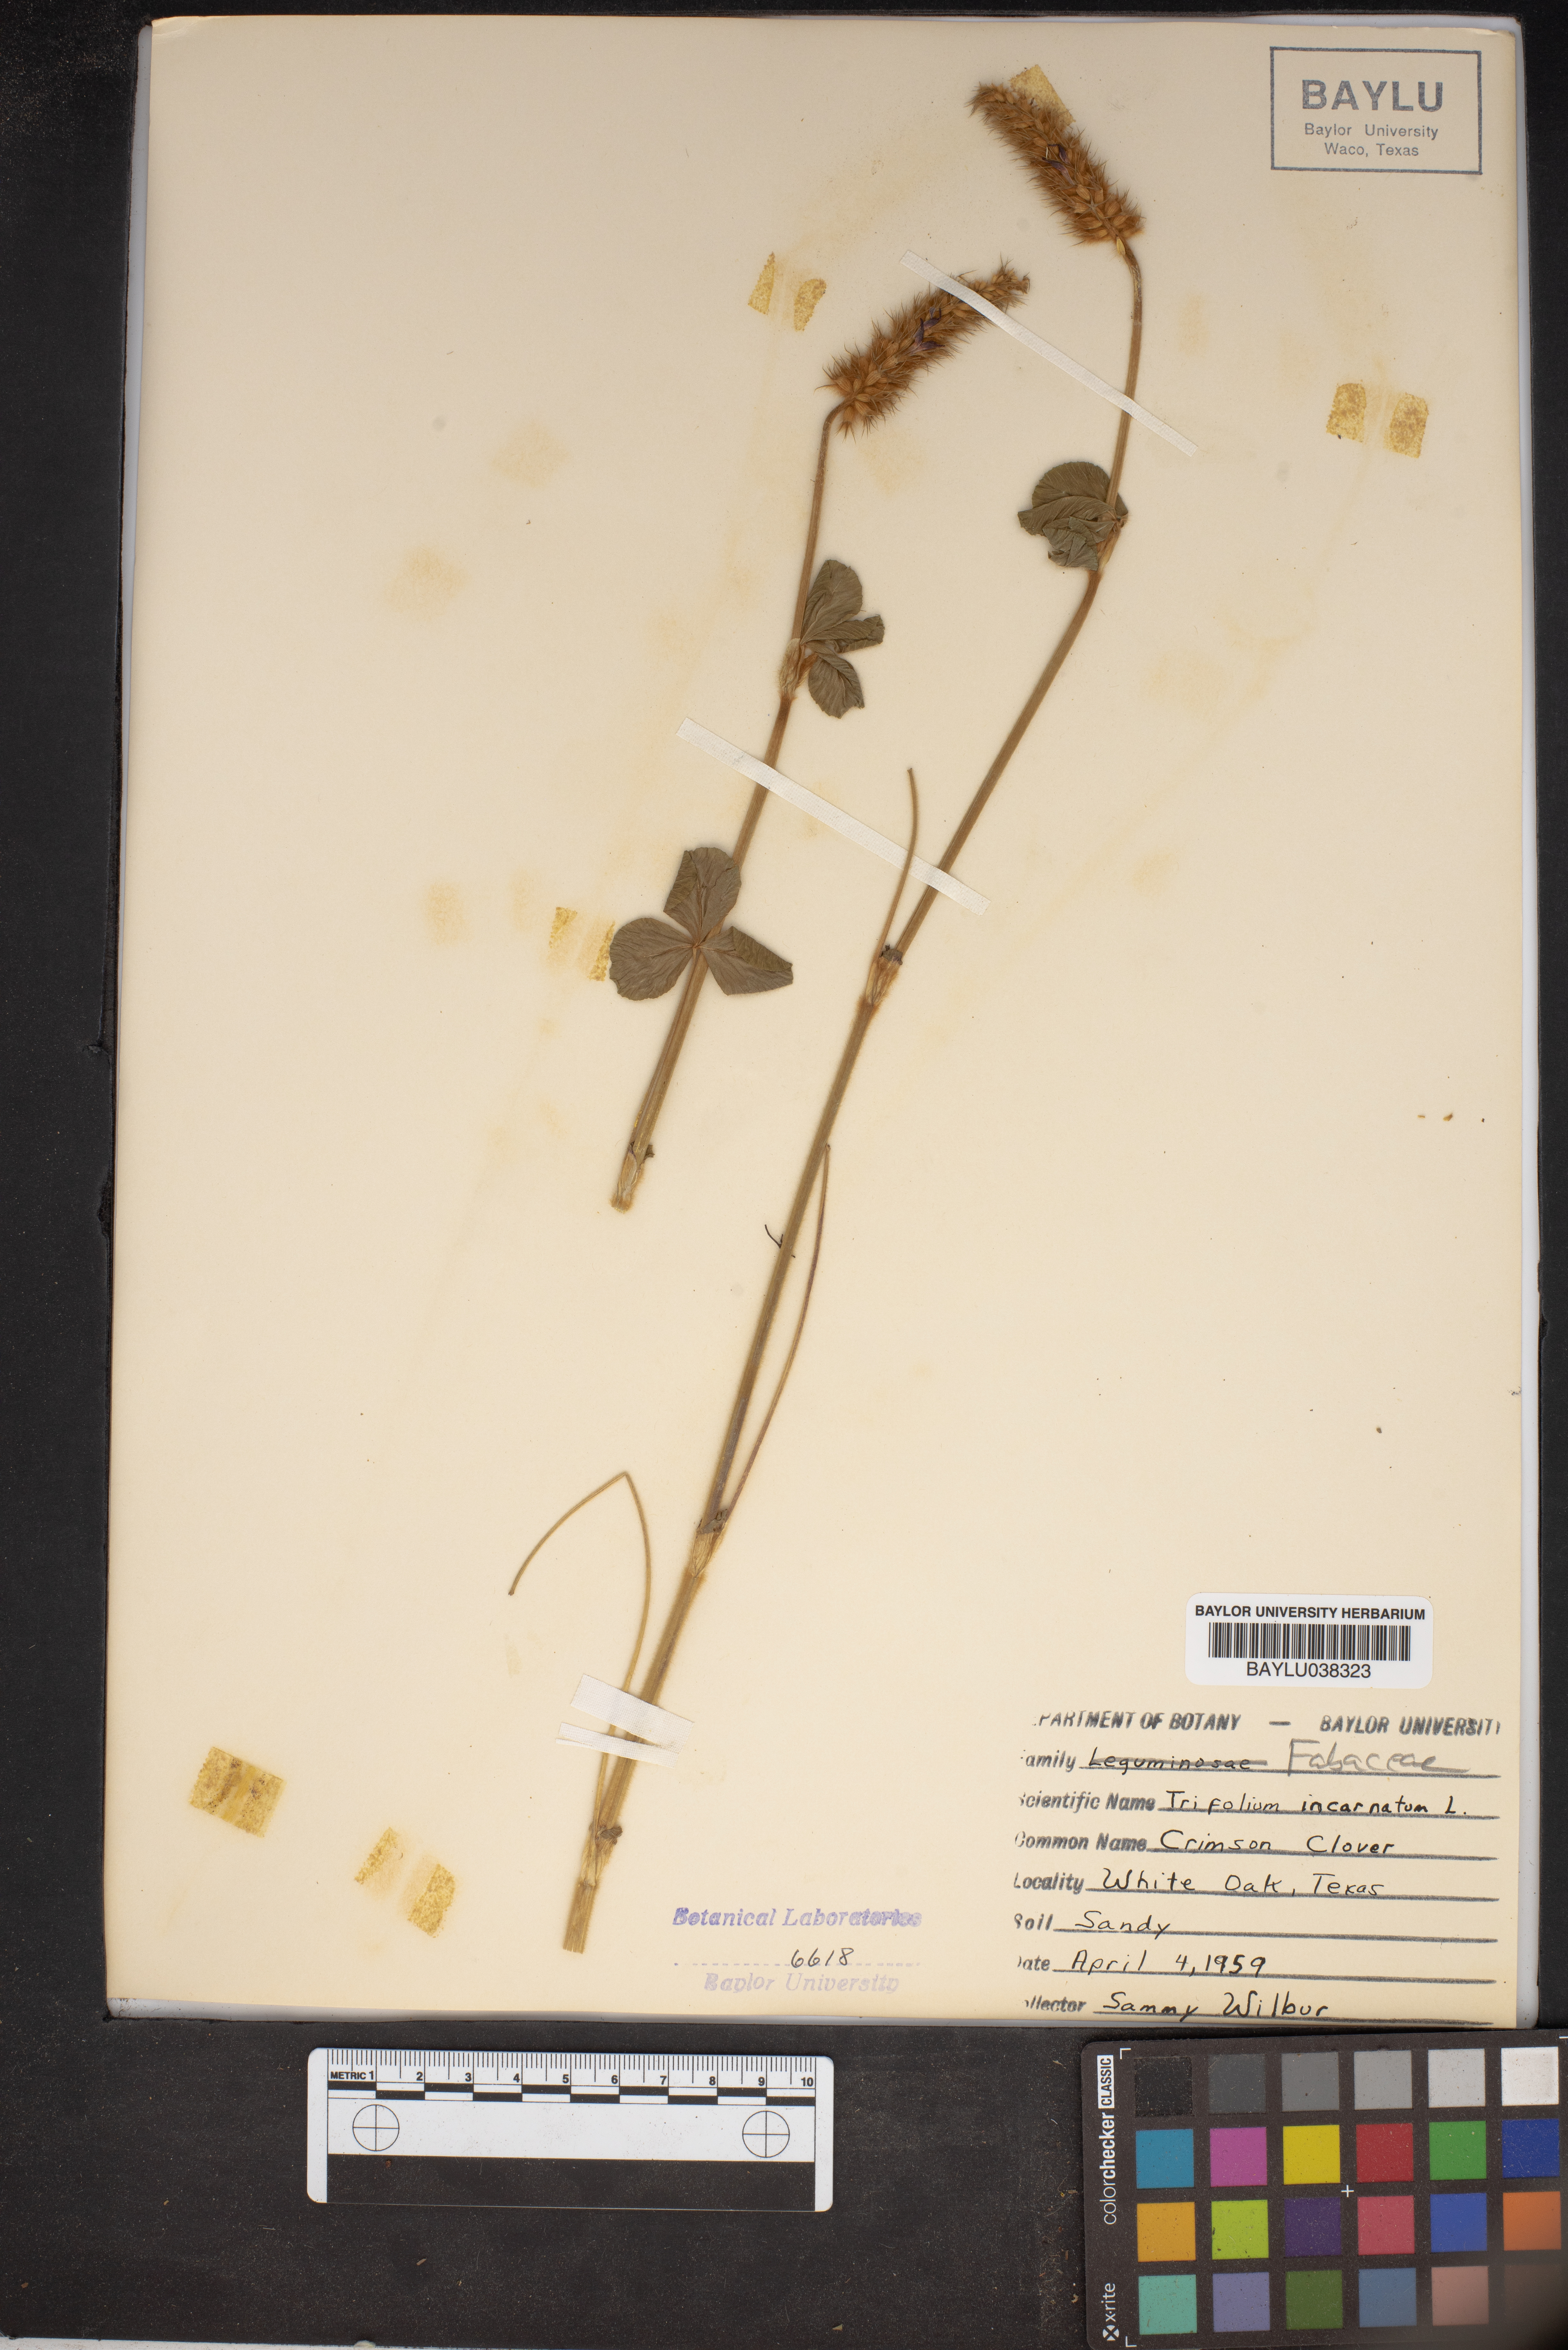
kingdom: Plantae
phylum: Tracheophyta
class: Magnoliopsida
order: Fabales
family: Fabaceae
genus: Trifolium
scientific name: Trifolium incarnatum
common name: Crimson clover
